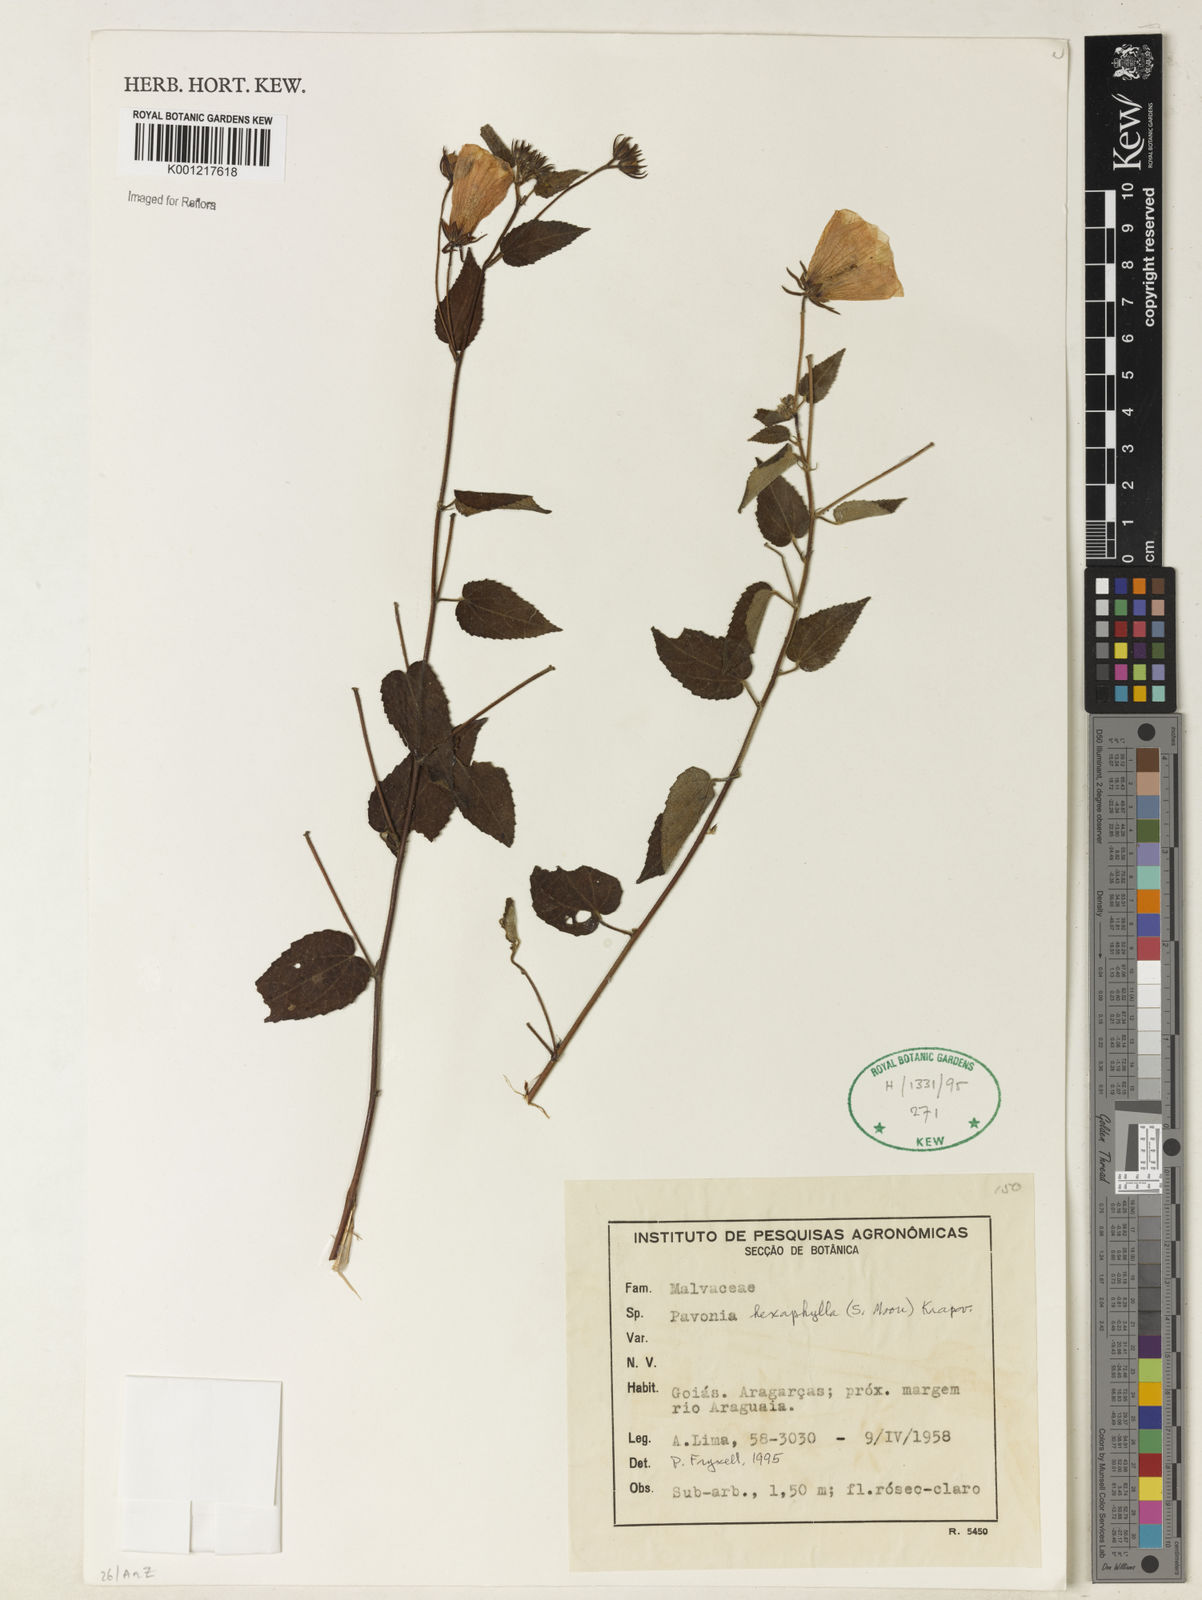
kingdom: Plantae
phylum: Tracheophyta
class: Magnoliopsida
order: Malvales
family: Malvaceae
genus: Pavonia
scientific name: Pavonia geminiflora
